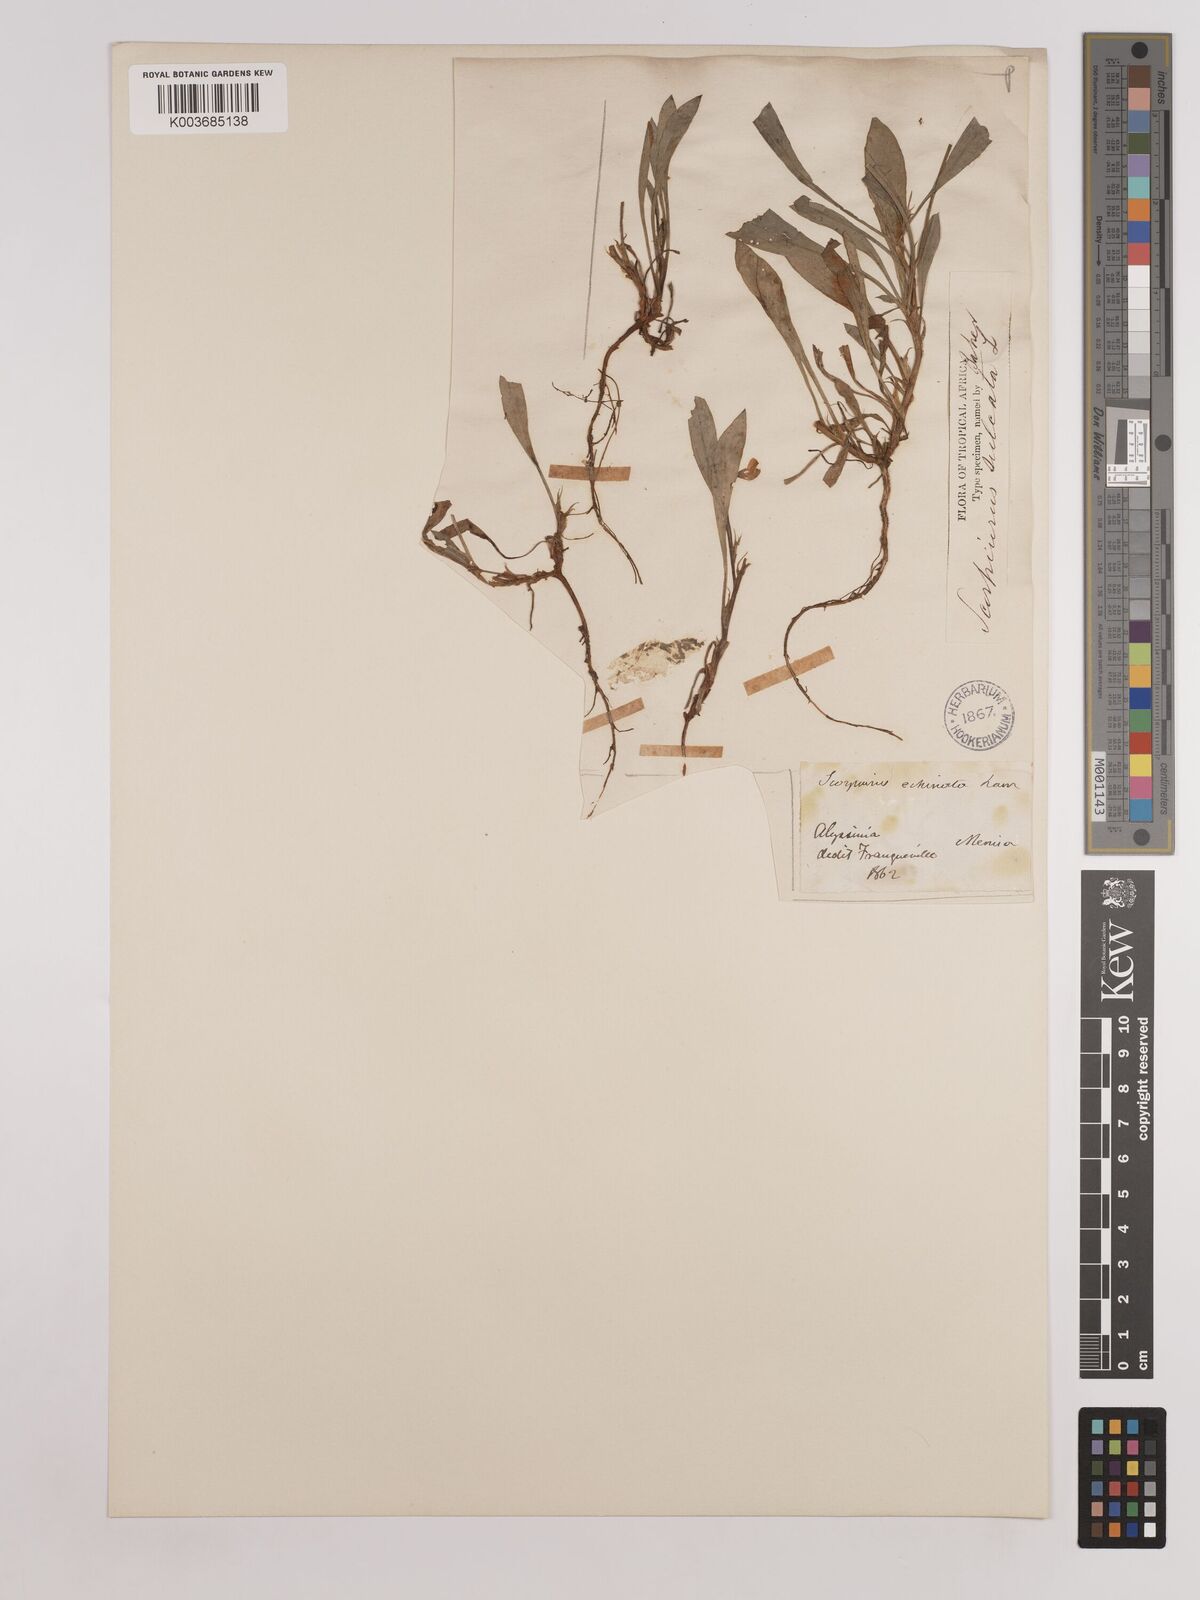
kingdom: Plantae
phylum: Tracheophyta
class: Magnoliopsida
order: Fabales
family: Fabaceae
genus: Scorpiurus
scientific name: Scorpiurus muricatus
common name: Caterpillar-plant
